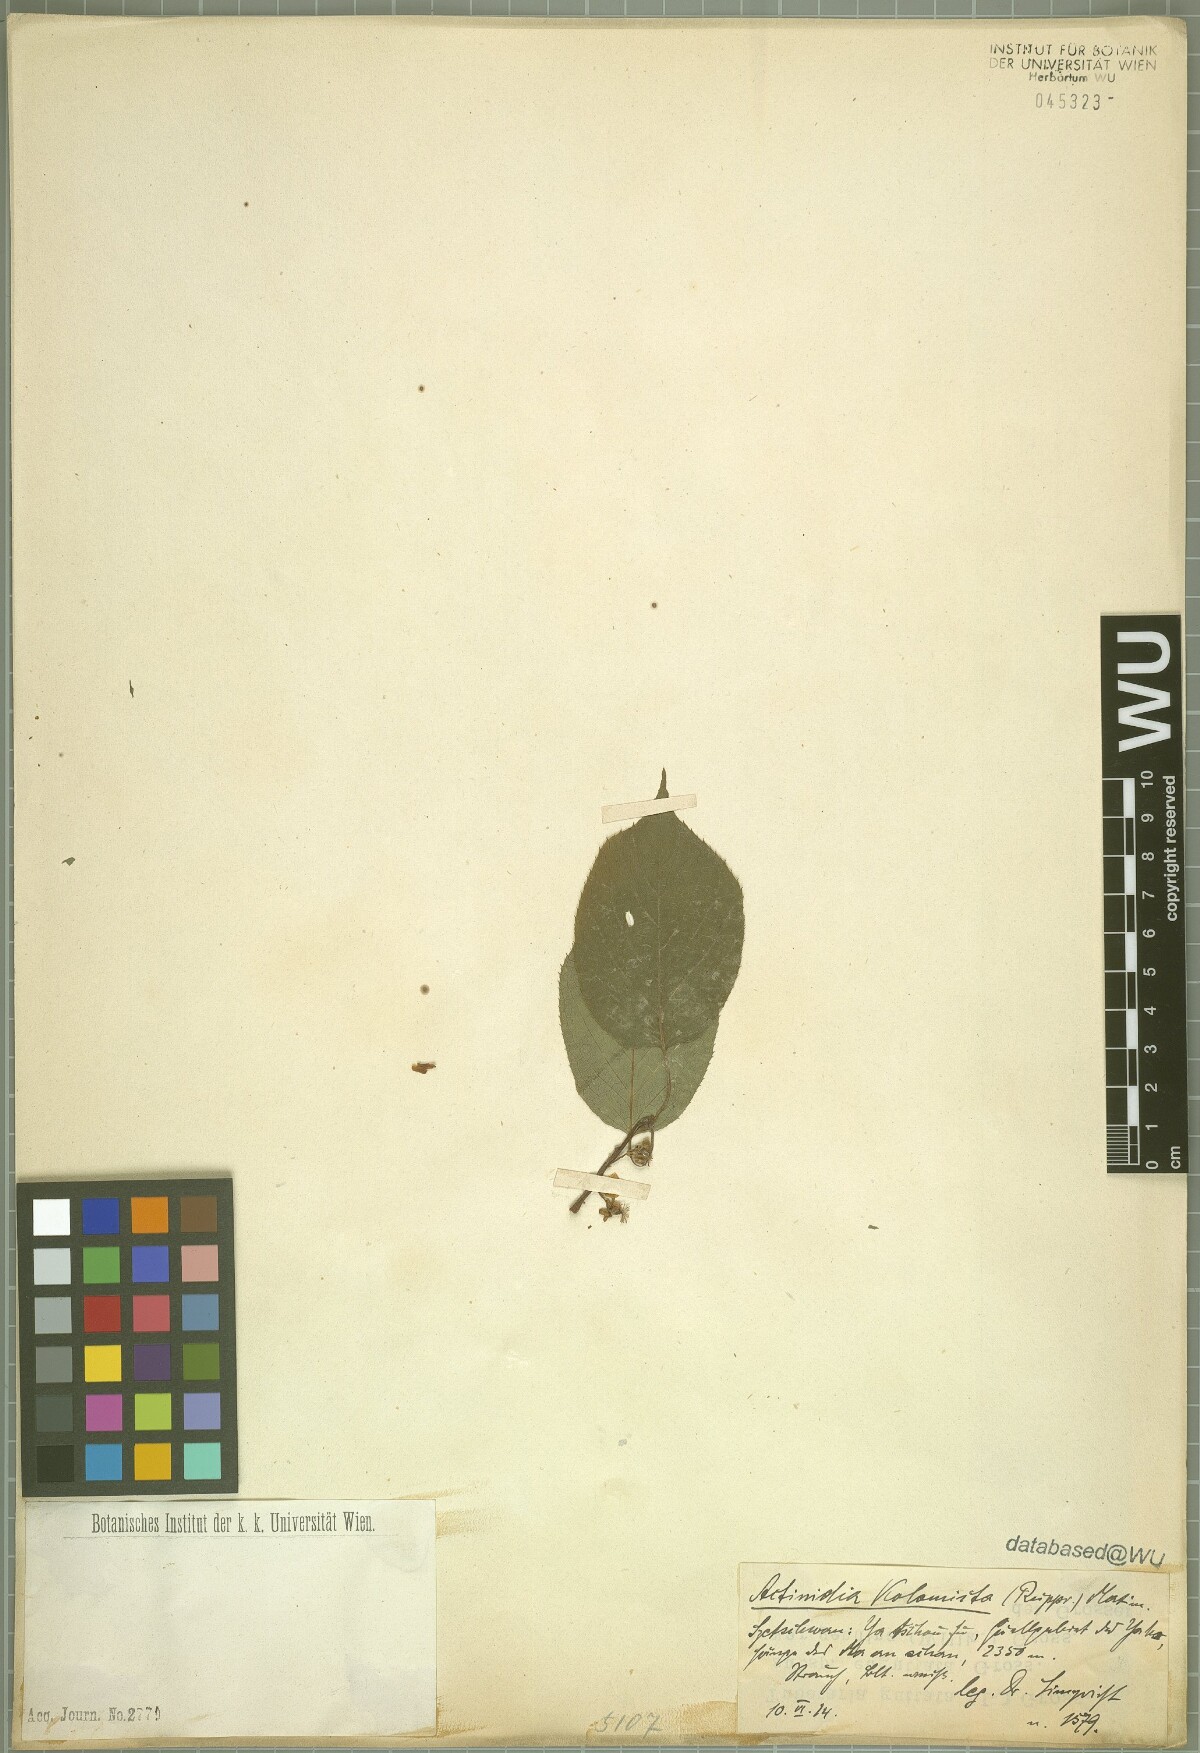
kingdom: Plantae
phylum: Tracheophyta
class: Magnoliopsida
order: Ericales
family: Actinidiaceae
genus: Actinidia
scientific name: Actinidia kolomikta
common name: Arctic beauty kiwi
